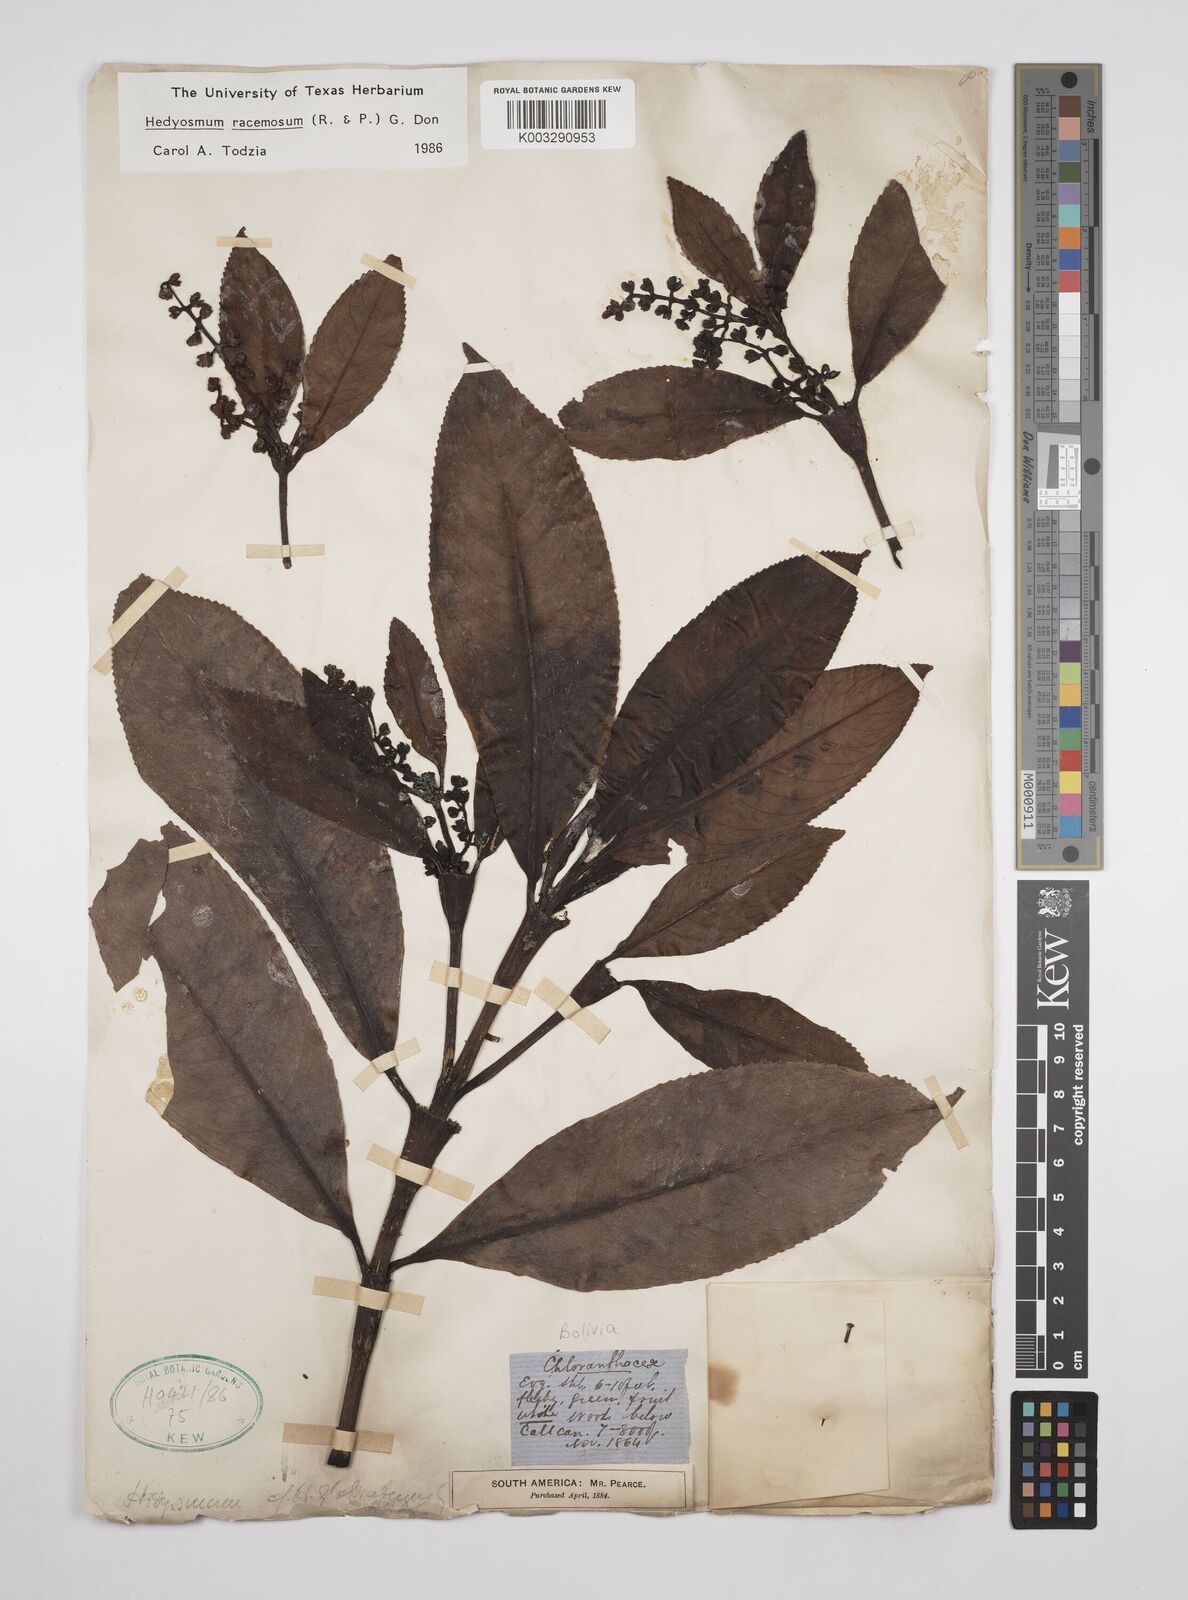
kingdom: Plantae
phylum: Tracheophyta
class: Magnoliopsida
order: Chloranthales
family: Chloranthaceae
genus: Hedyosmum
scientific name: Hedyosmum racemosum
